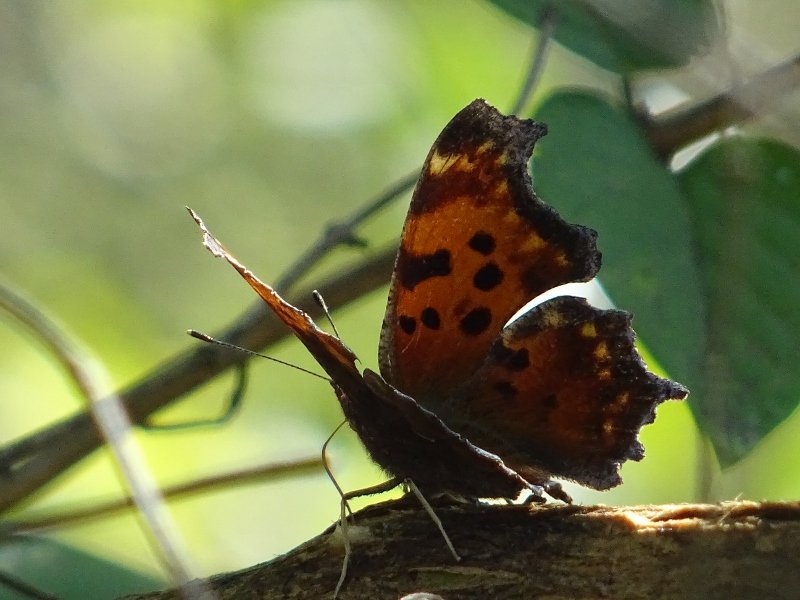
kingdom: Animalia
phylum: Arthropoda
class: Insecta
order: Lepidoptera
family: Nymphalidae
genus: Polygonia
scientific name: Polygonia comma
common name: Eastern Comma
